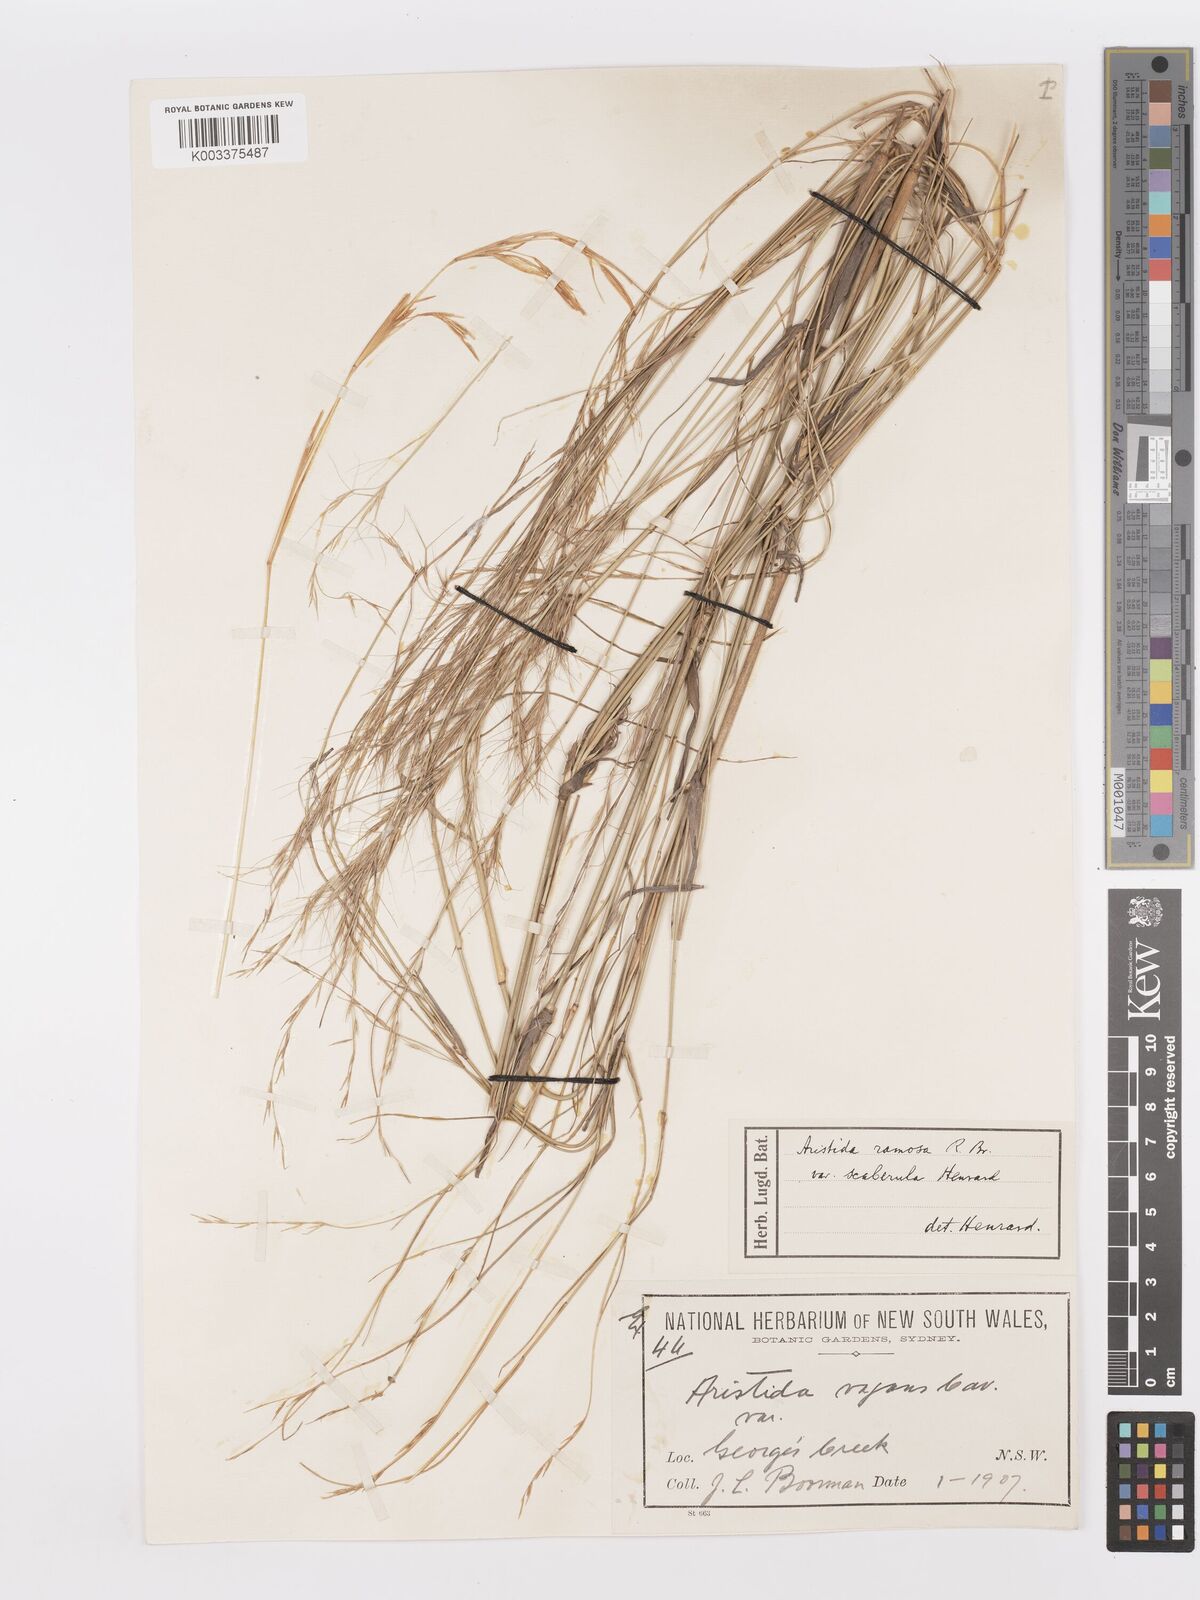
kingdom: Plantae
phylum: Tracheophyta
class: Liliopsida
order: Poales
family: Poaceae
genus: Aristida
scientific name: Aristida ramosa
